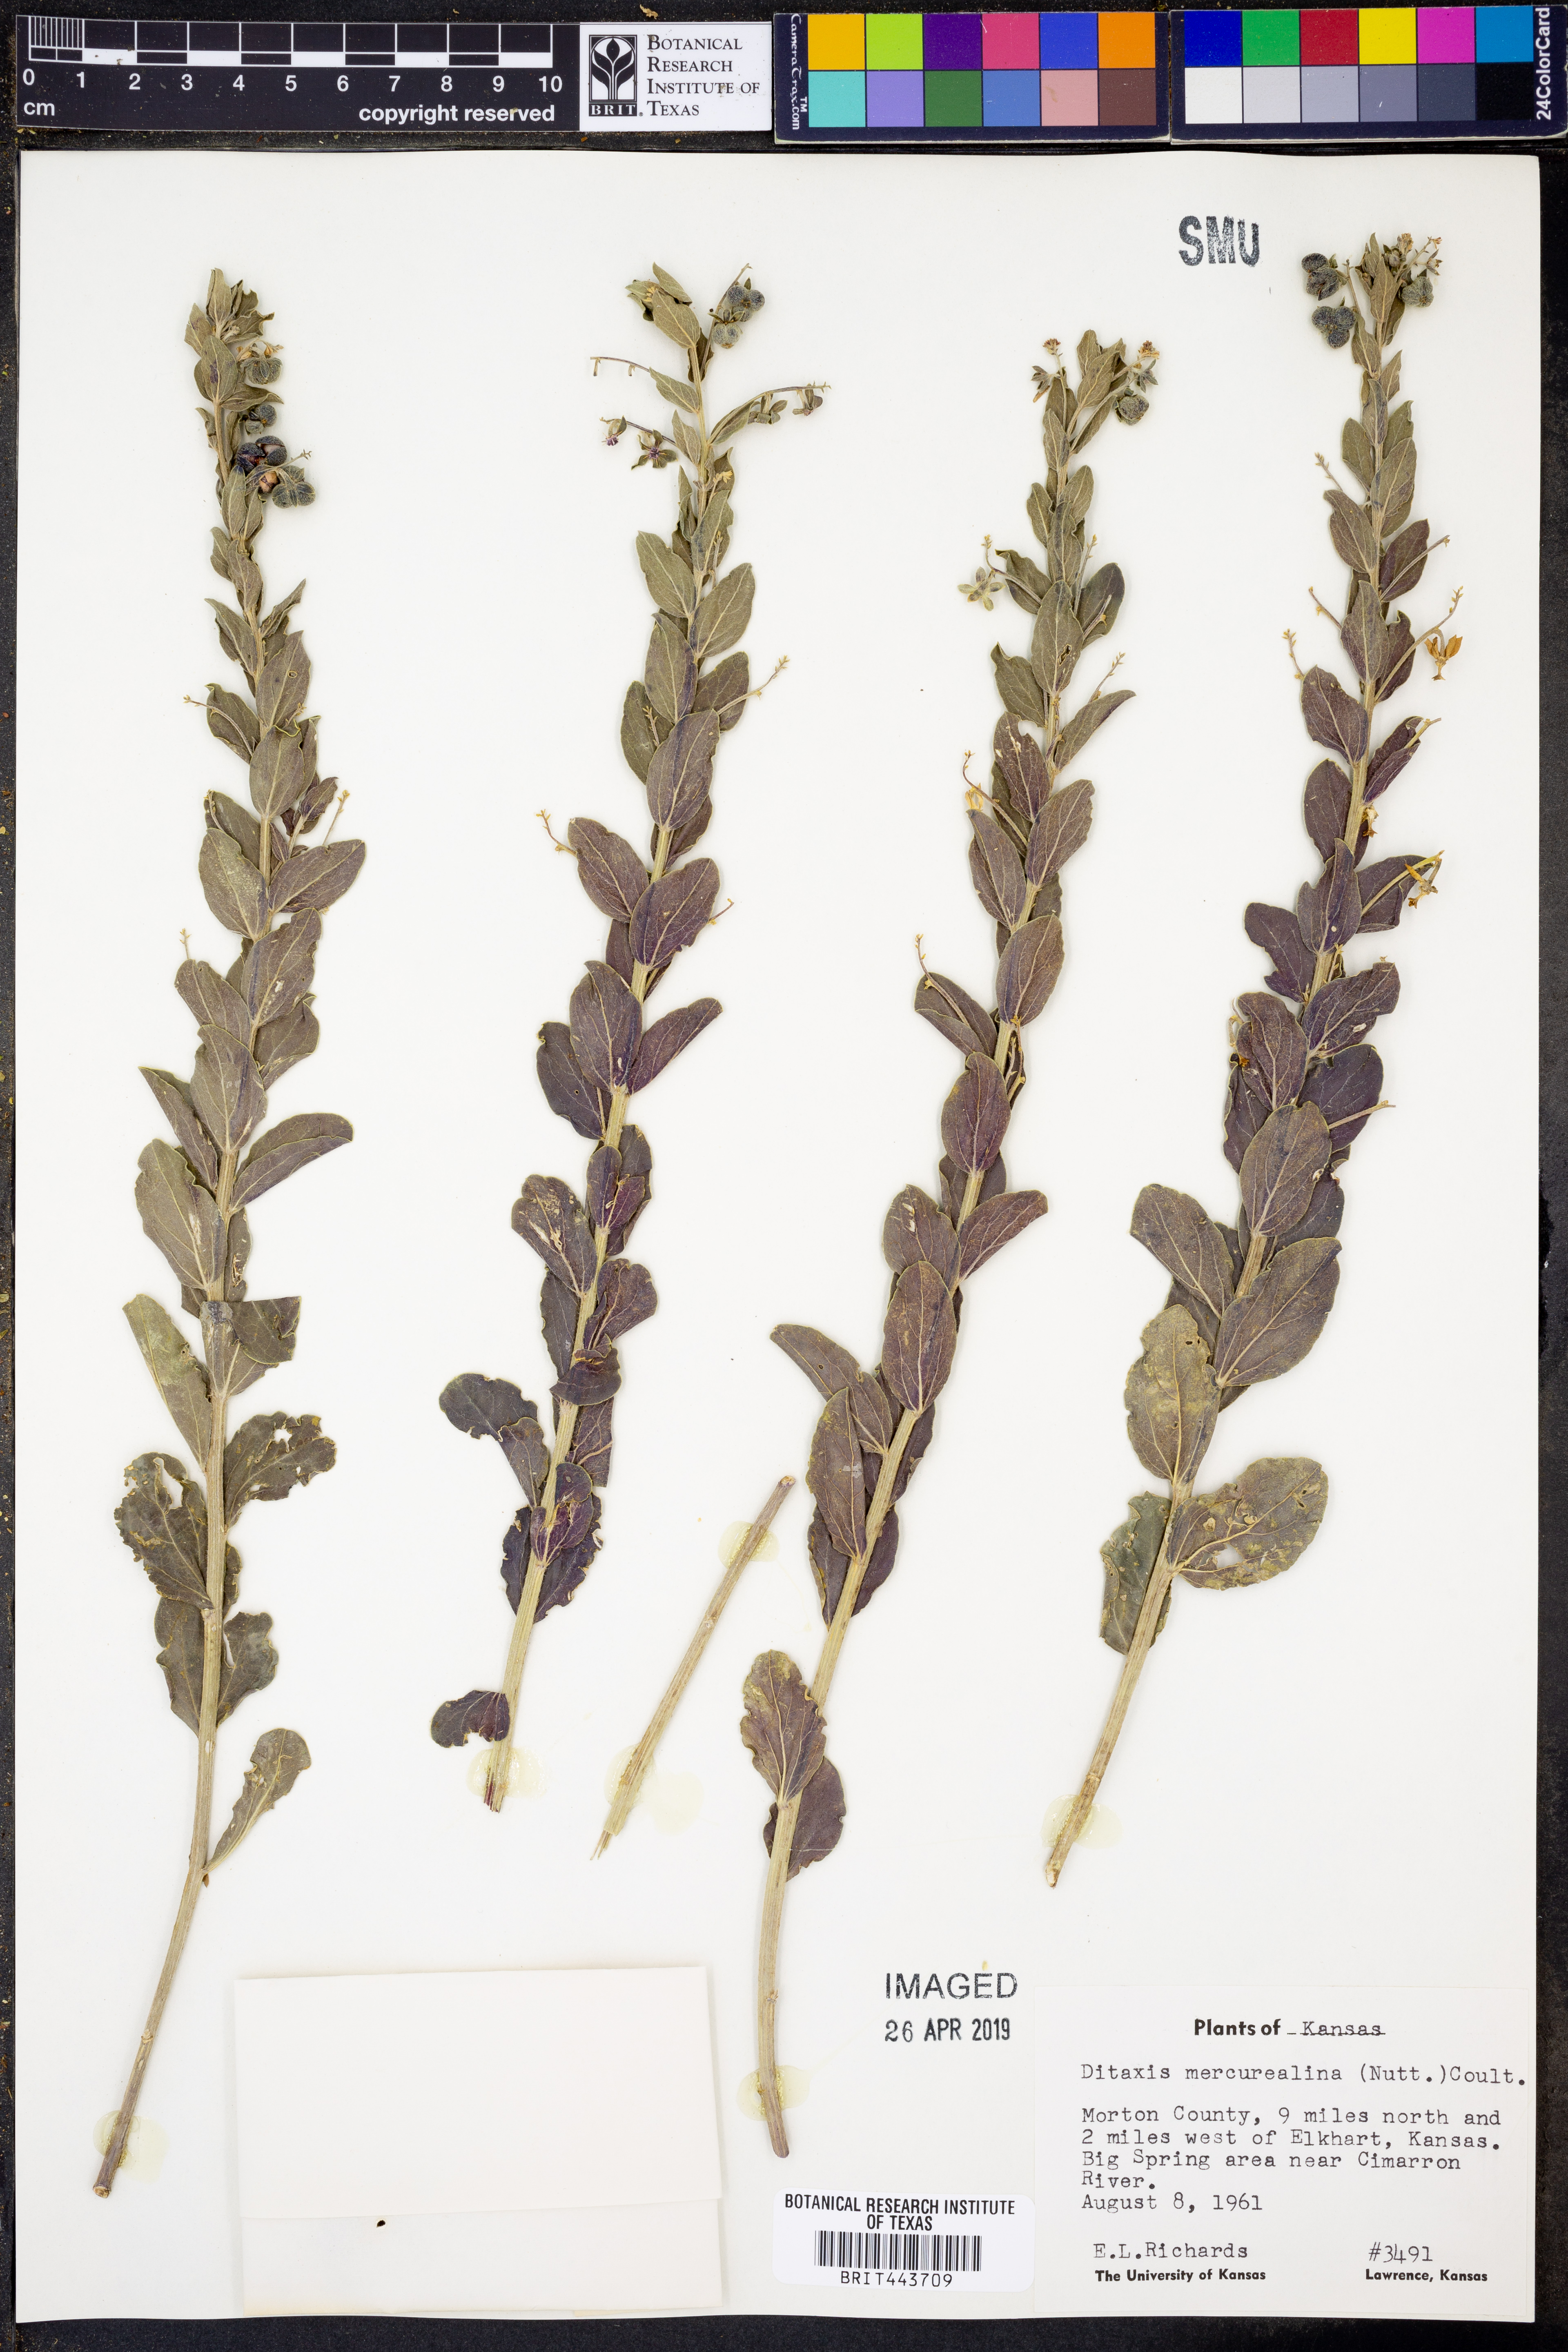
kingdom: Plantae
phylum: Tracheophyta
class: Magnoliopsida
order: Malpighiales
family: Euphorbiaceae
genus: Ditaxis
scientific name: Ditaxis mercurialina
